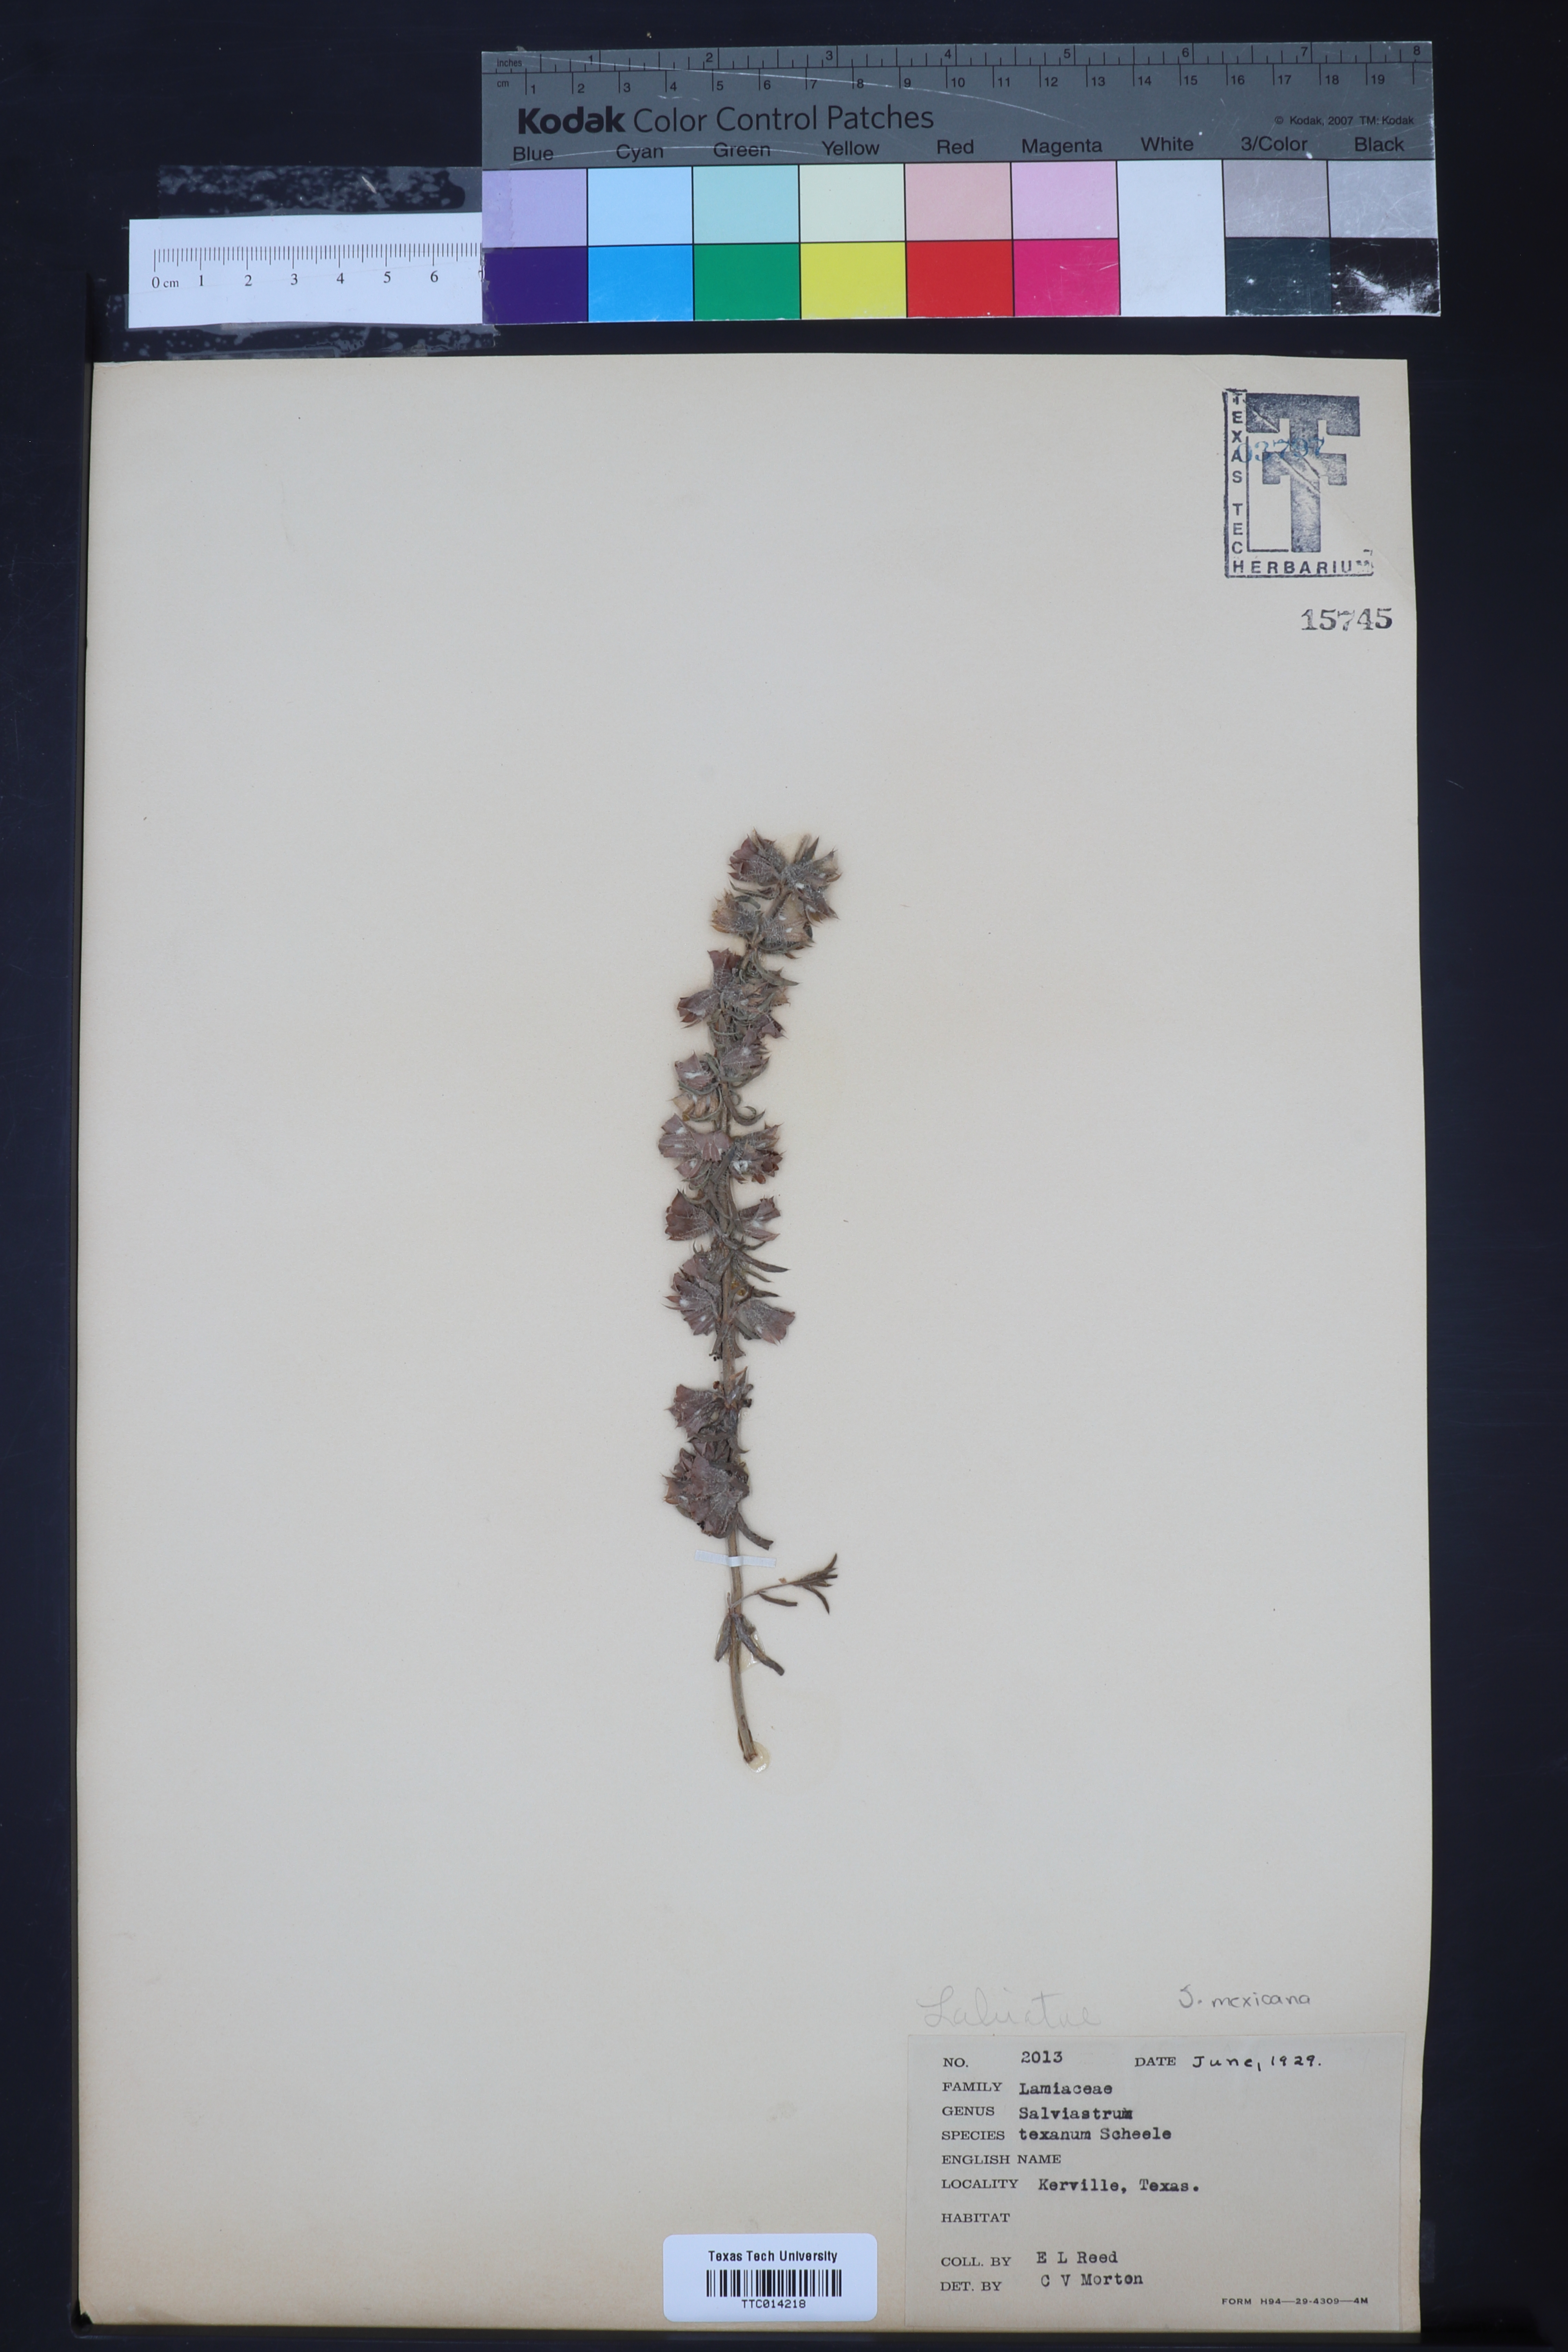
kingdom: Plantae
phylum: Tracheophyta
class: Magnoliopsida
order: Lamiales
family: Lamiaceae
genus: Salvia
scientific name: Salvia texana
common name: Texas sage
